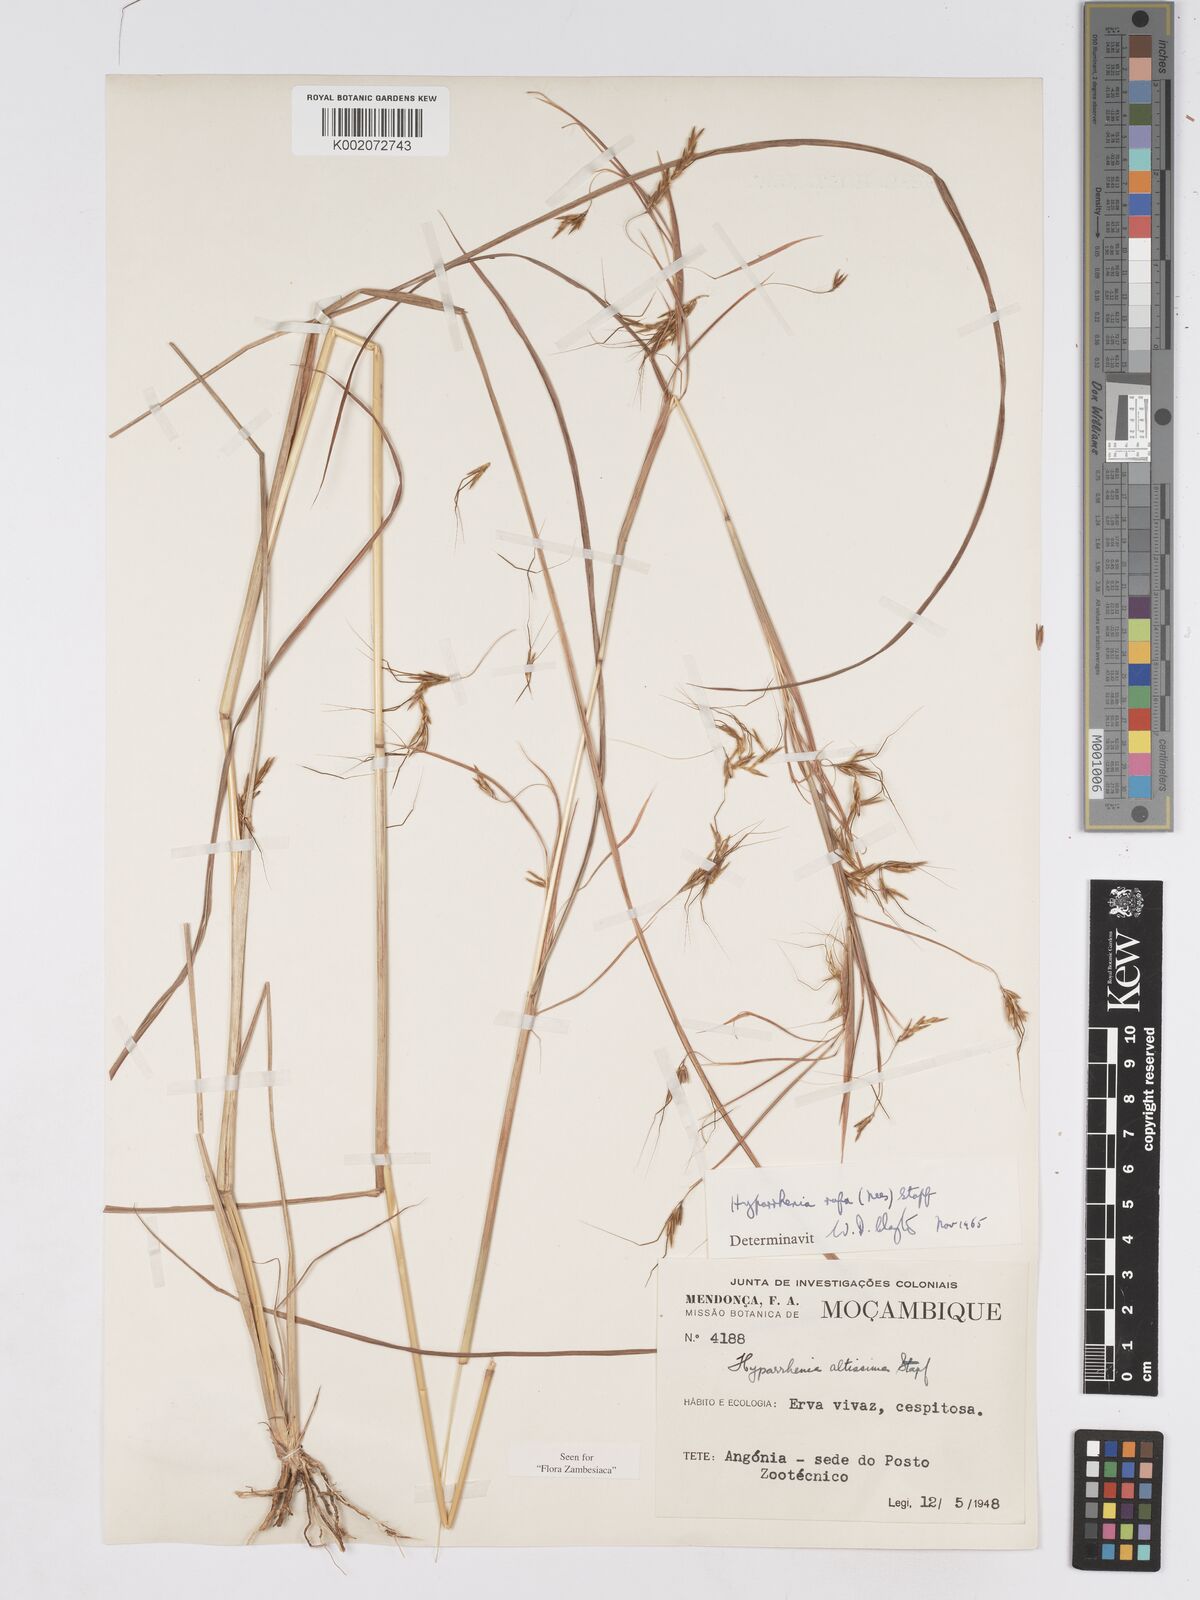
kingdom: Plantae
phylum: Tracheophyta
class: Liliopsida
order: Poales
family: Poaceae
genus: Hyparrhenia
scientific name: Hyparrhenia rufa
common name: Jaraguagrass
